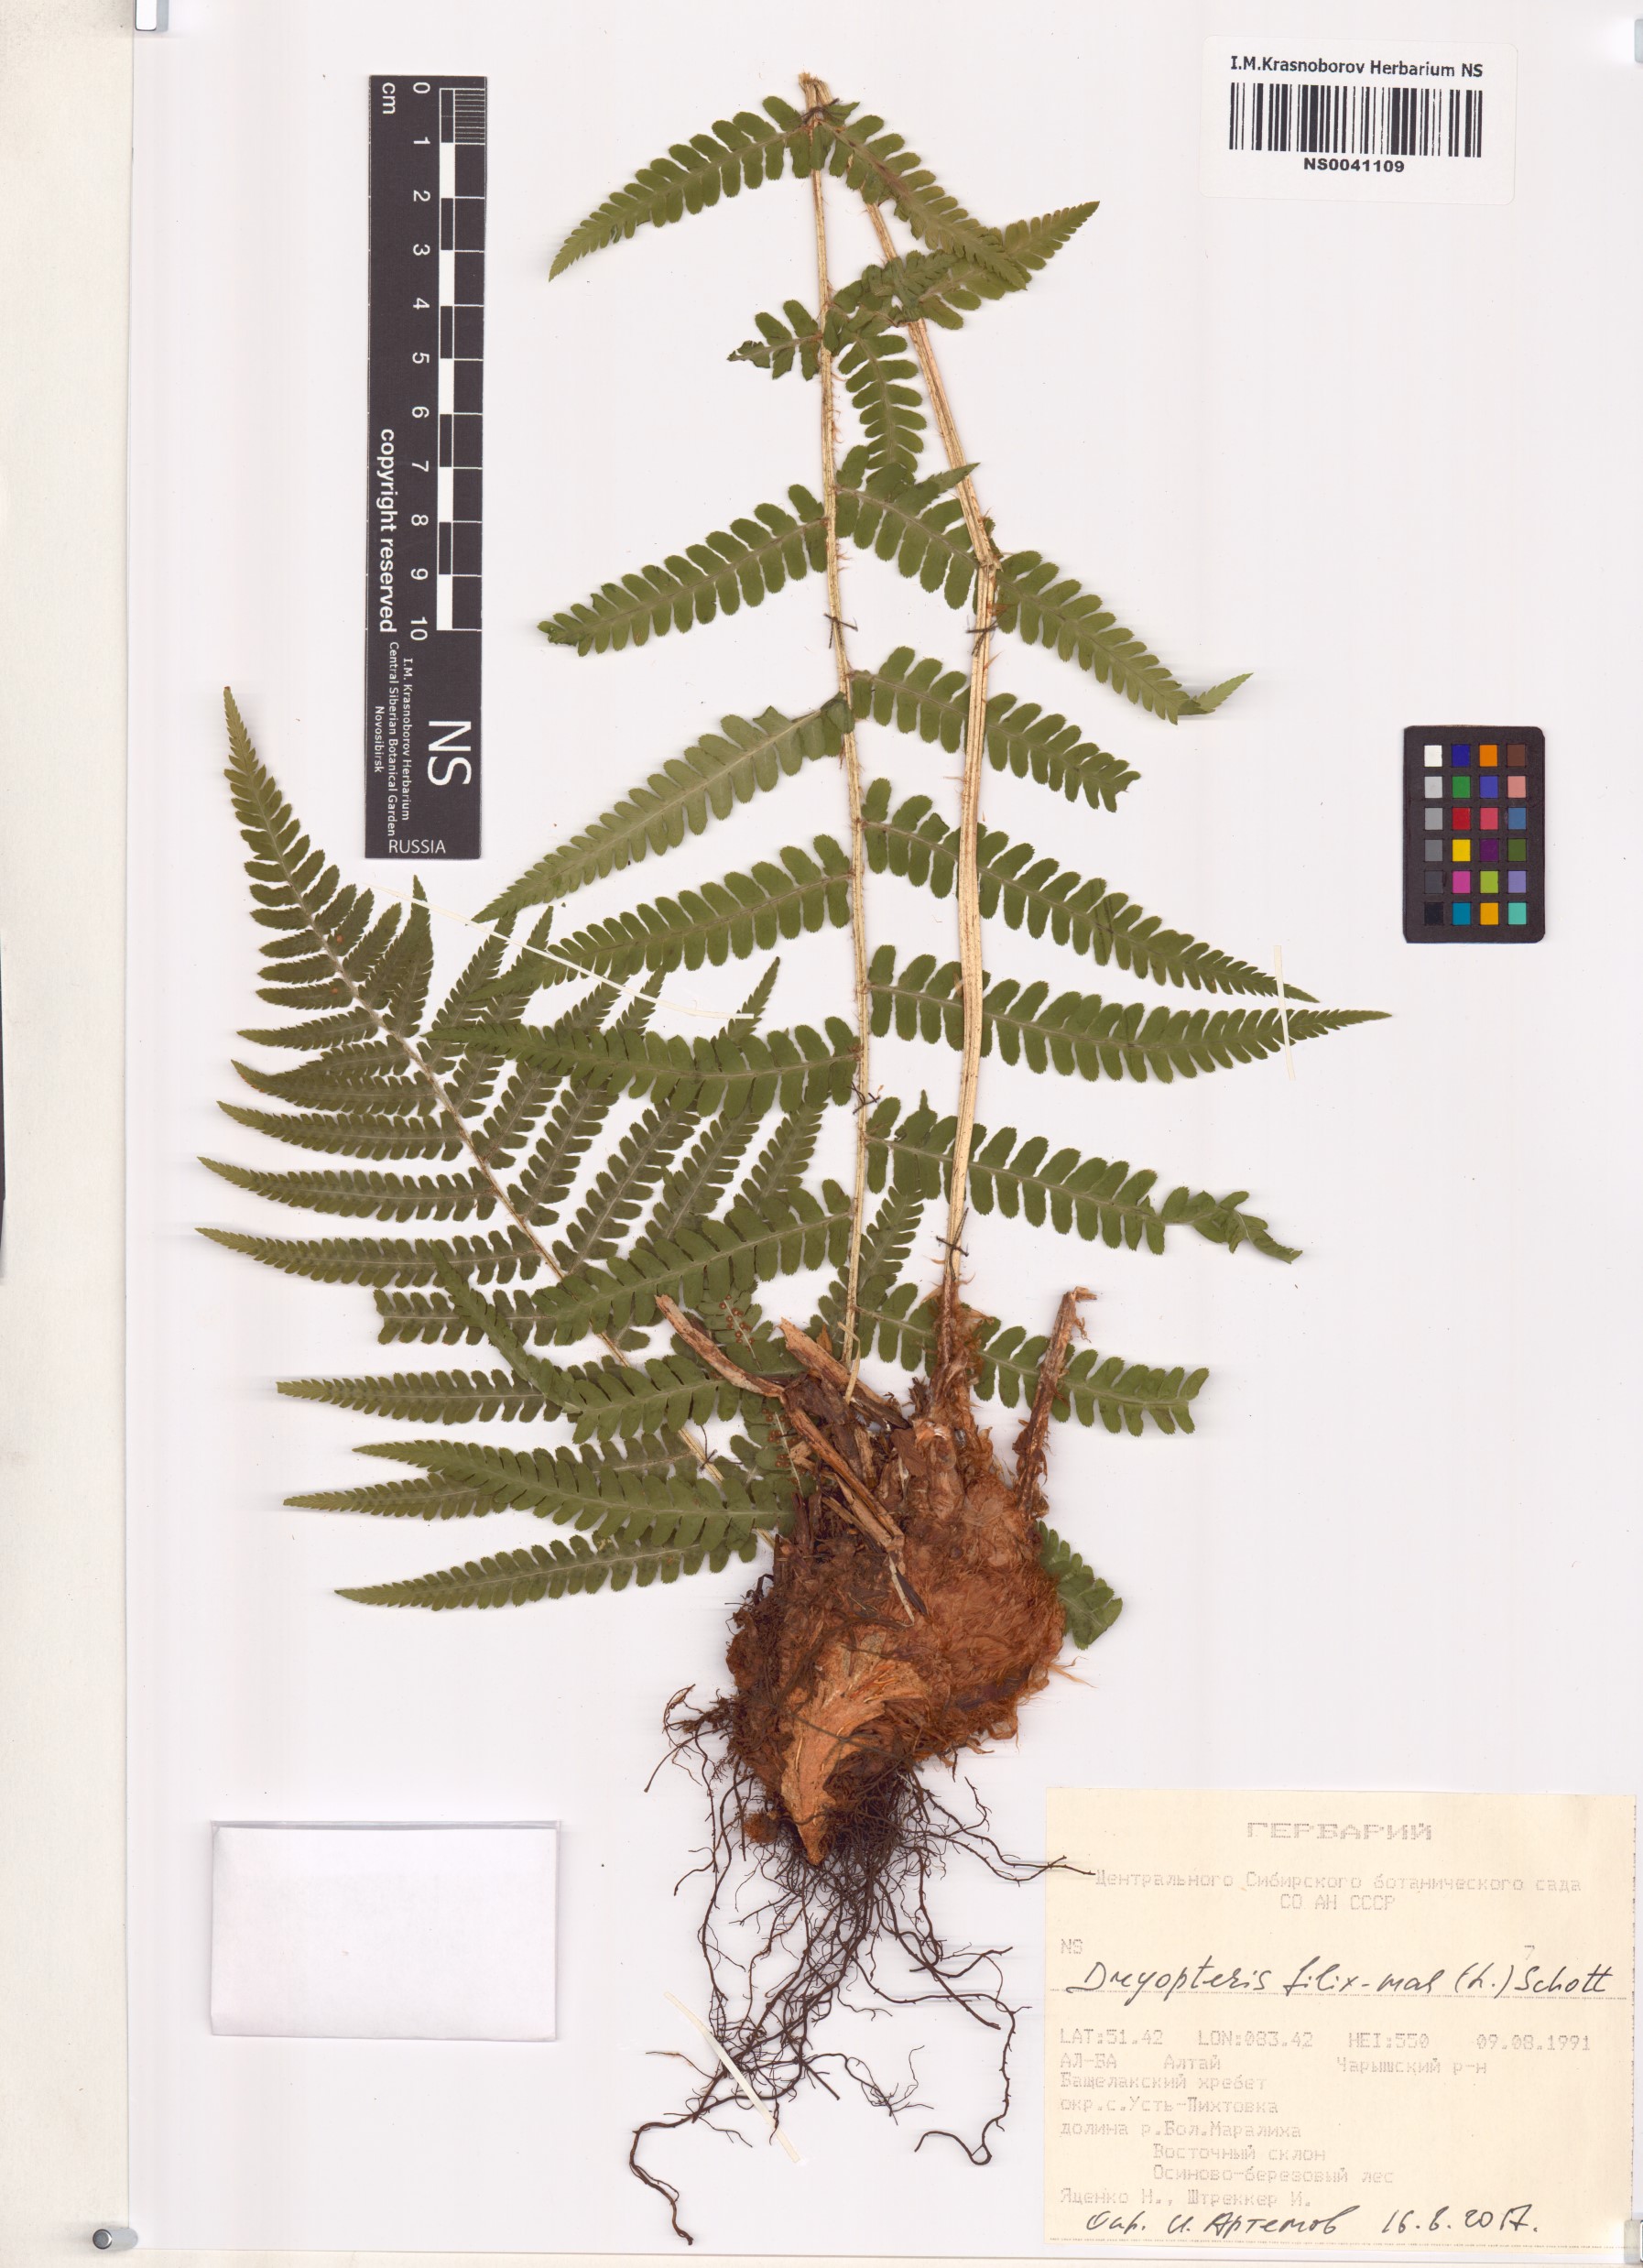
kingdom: Plantae
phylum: Tracheophyta
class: Polypodiopsida
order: Polypodiales
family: Dryopteridaceae
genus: Dryopteris
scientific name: Dryopteris filix-mas
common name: Male fern
